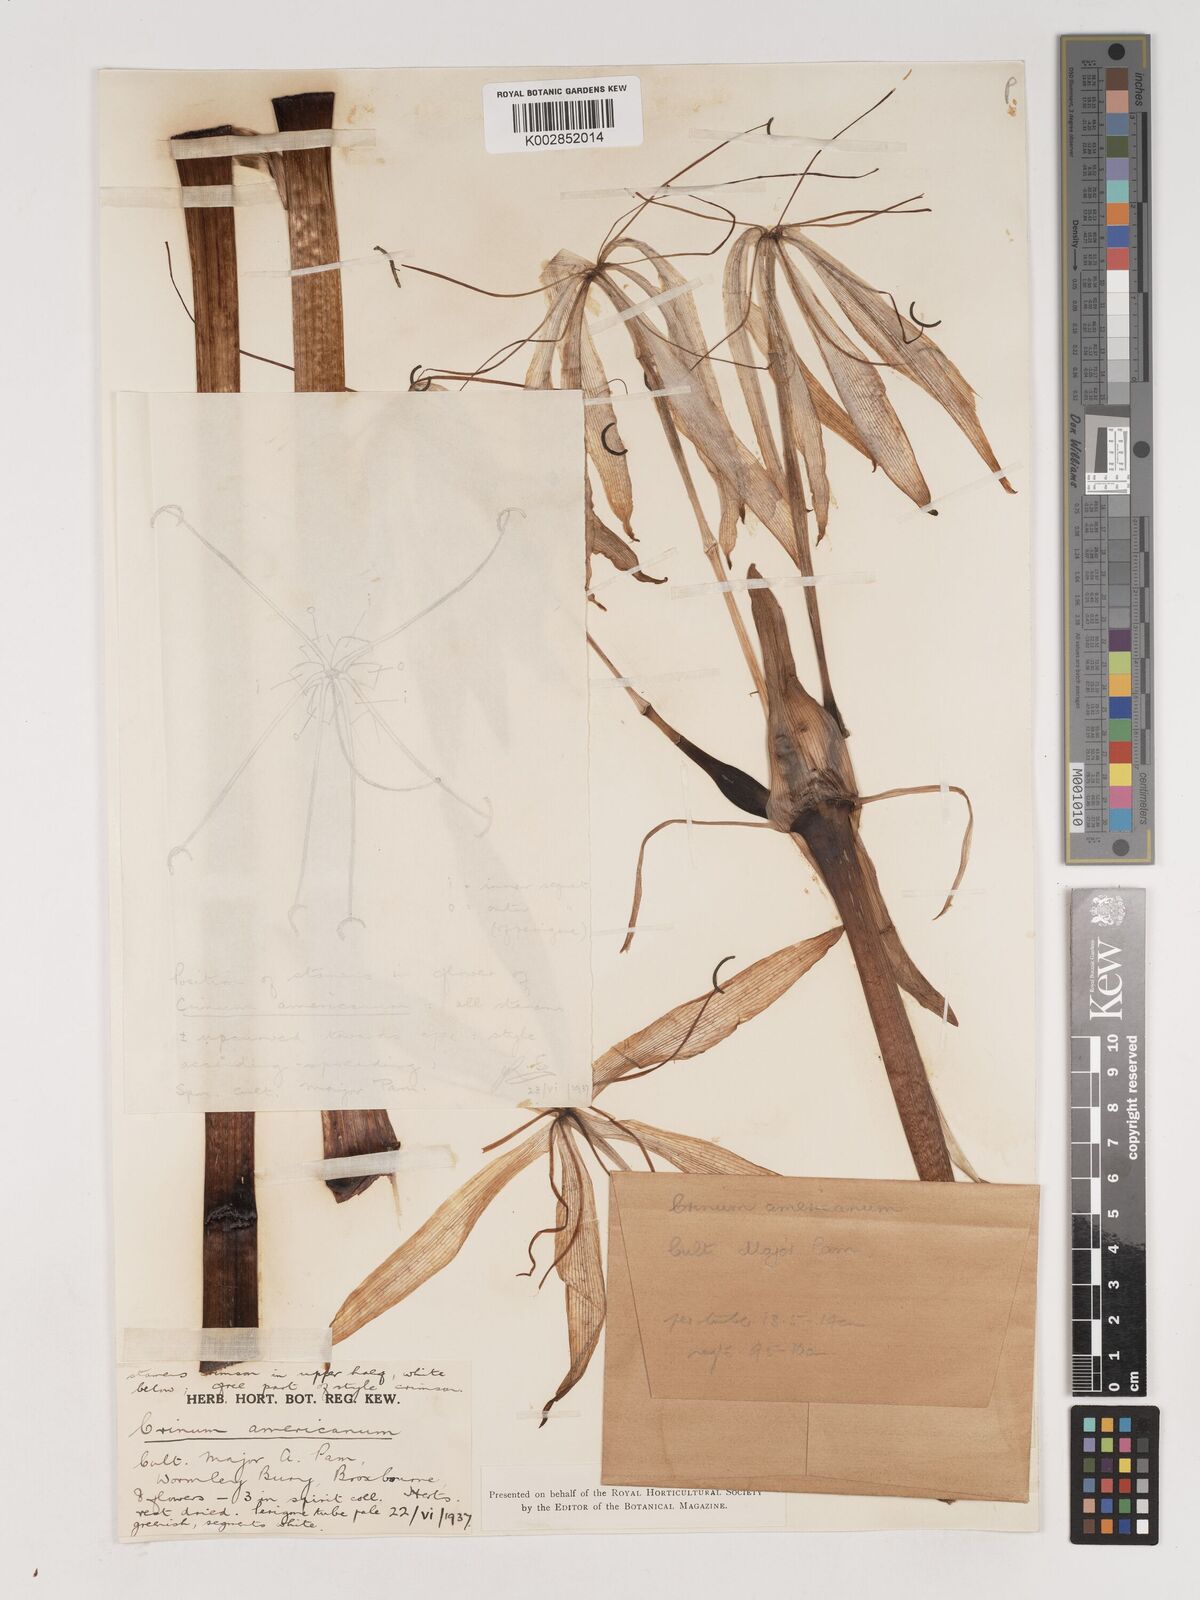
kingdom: Plantae
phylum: Tracheophyta
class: Liliopsida
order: Asparagales
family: Amaryllidaceae
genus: Crinum
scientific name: Crinum americanum
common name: Florida swamp-lily
